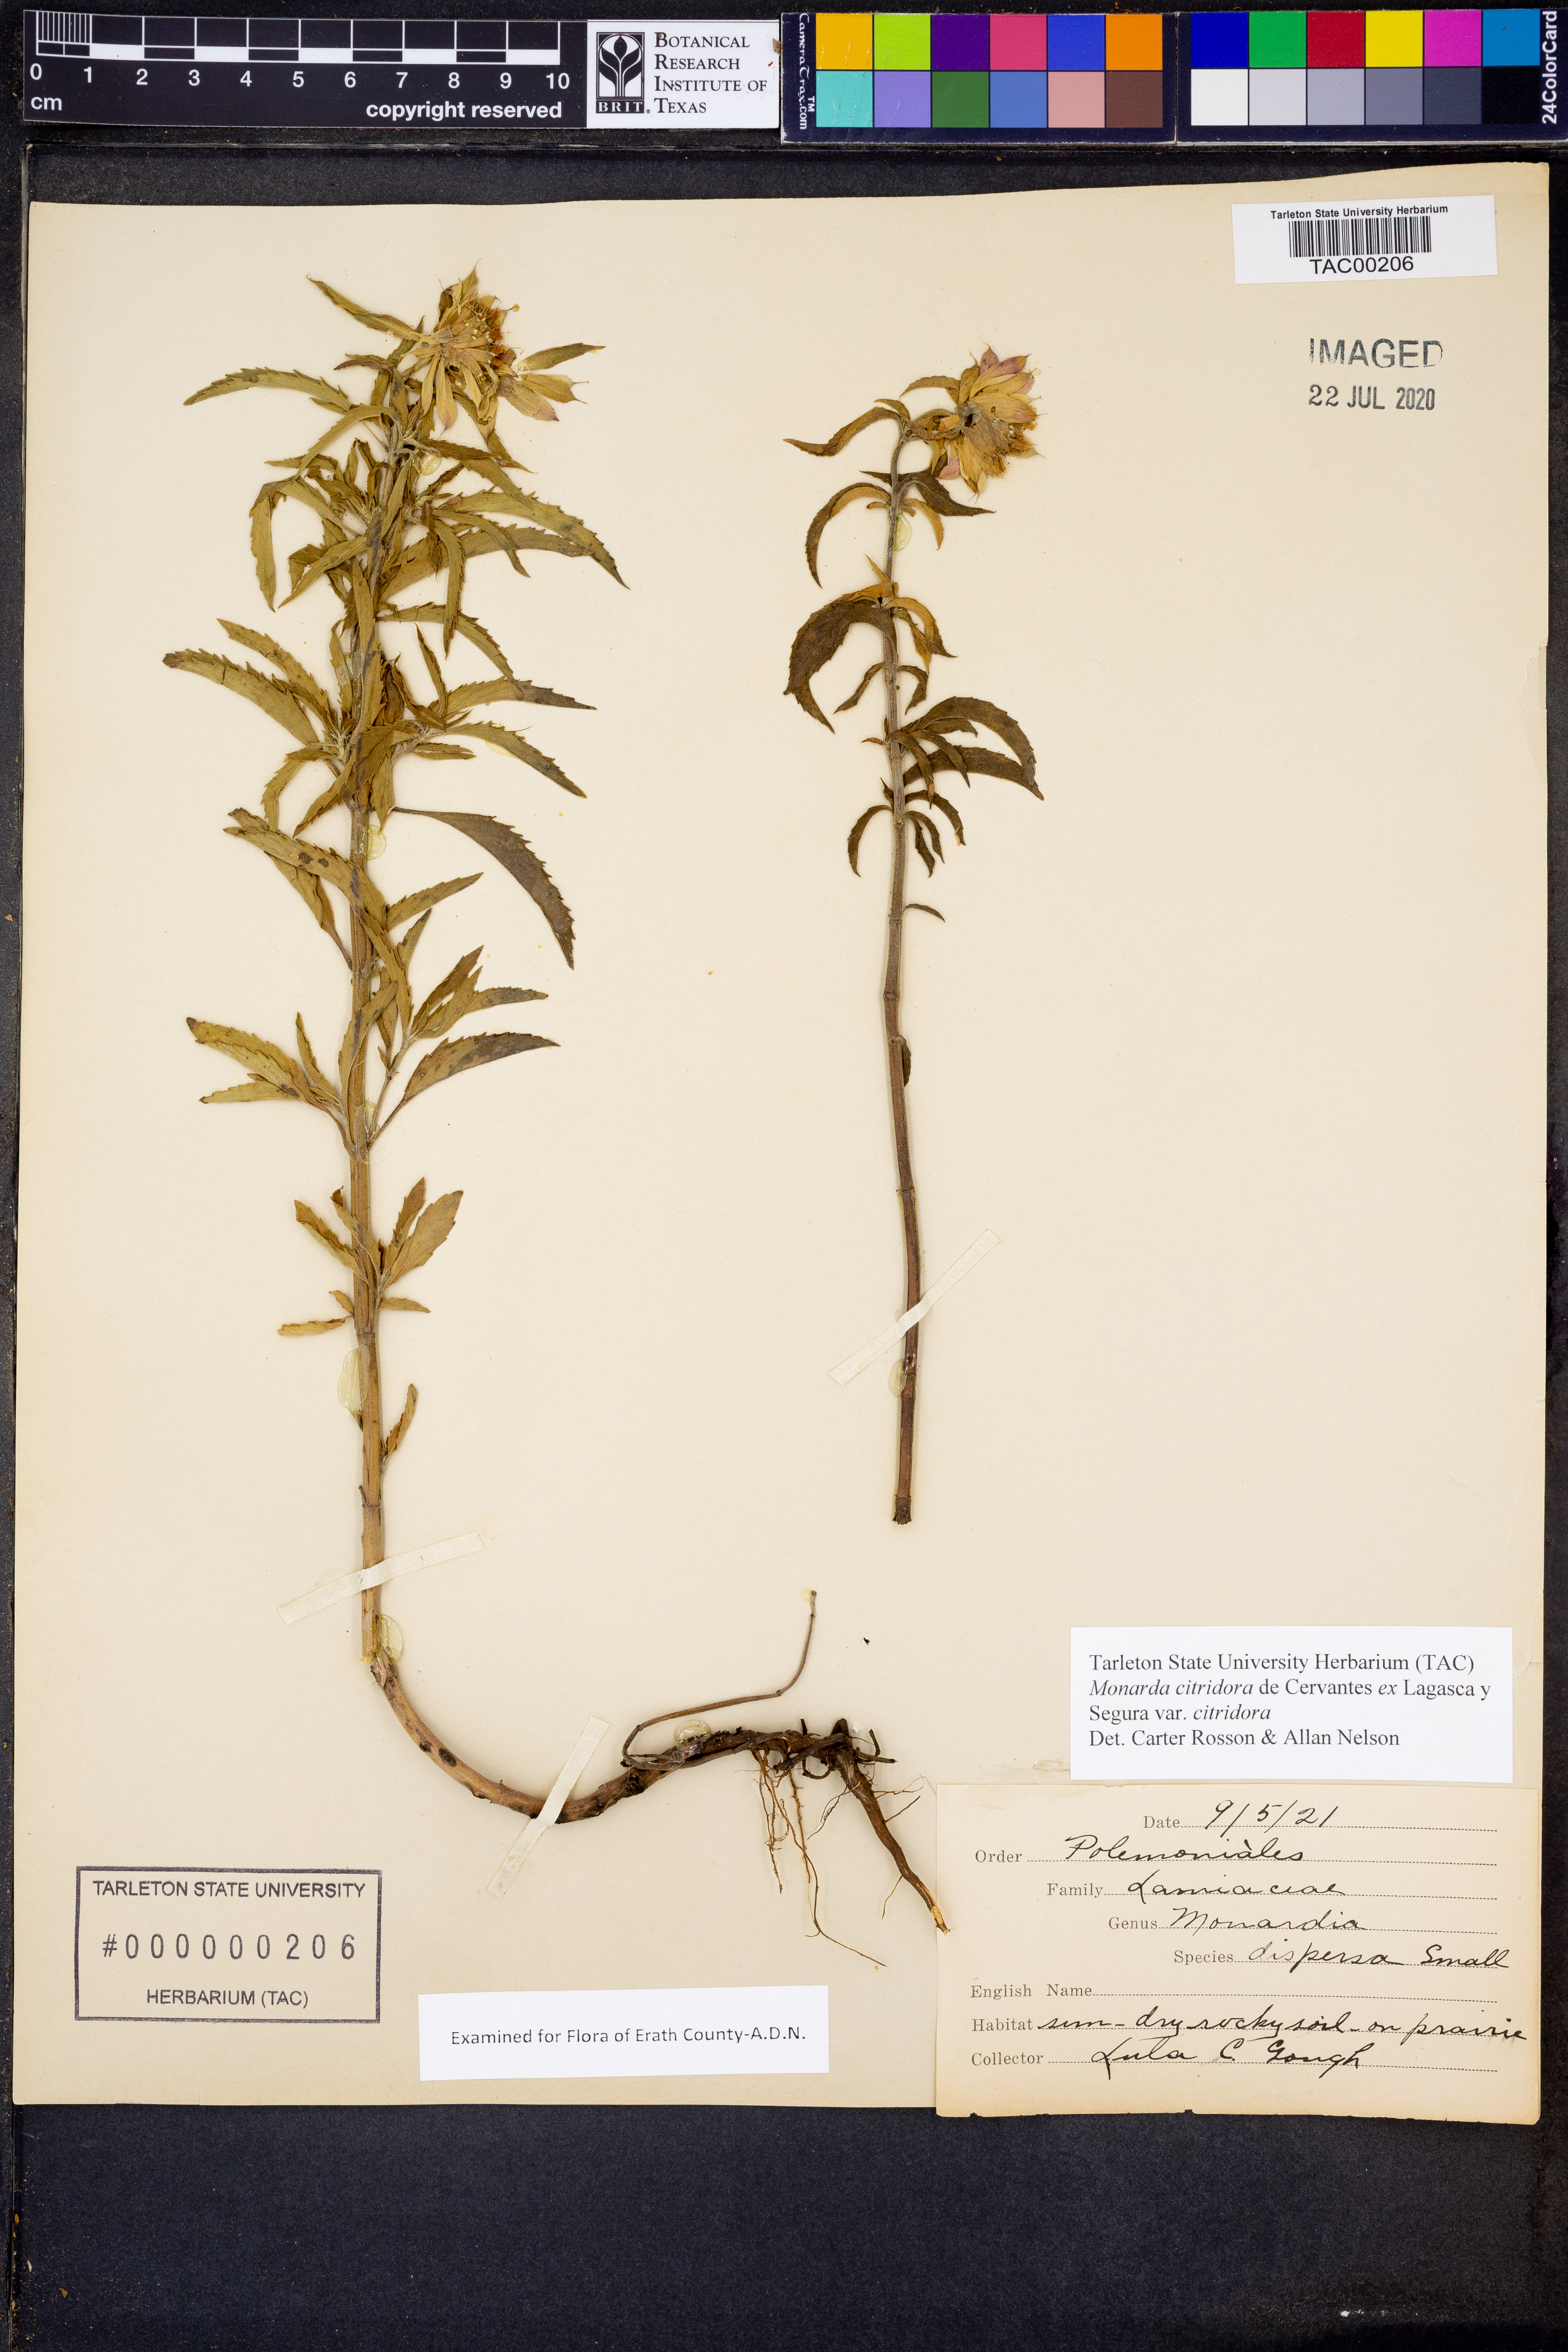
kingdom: Plantae
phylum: Tracheophyta
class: Magnoliopsida
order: Lamiales
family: Lamiaceae
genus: Monarda
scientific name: Monarda citriodora
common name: Lemon beebalm
